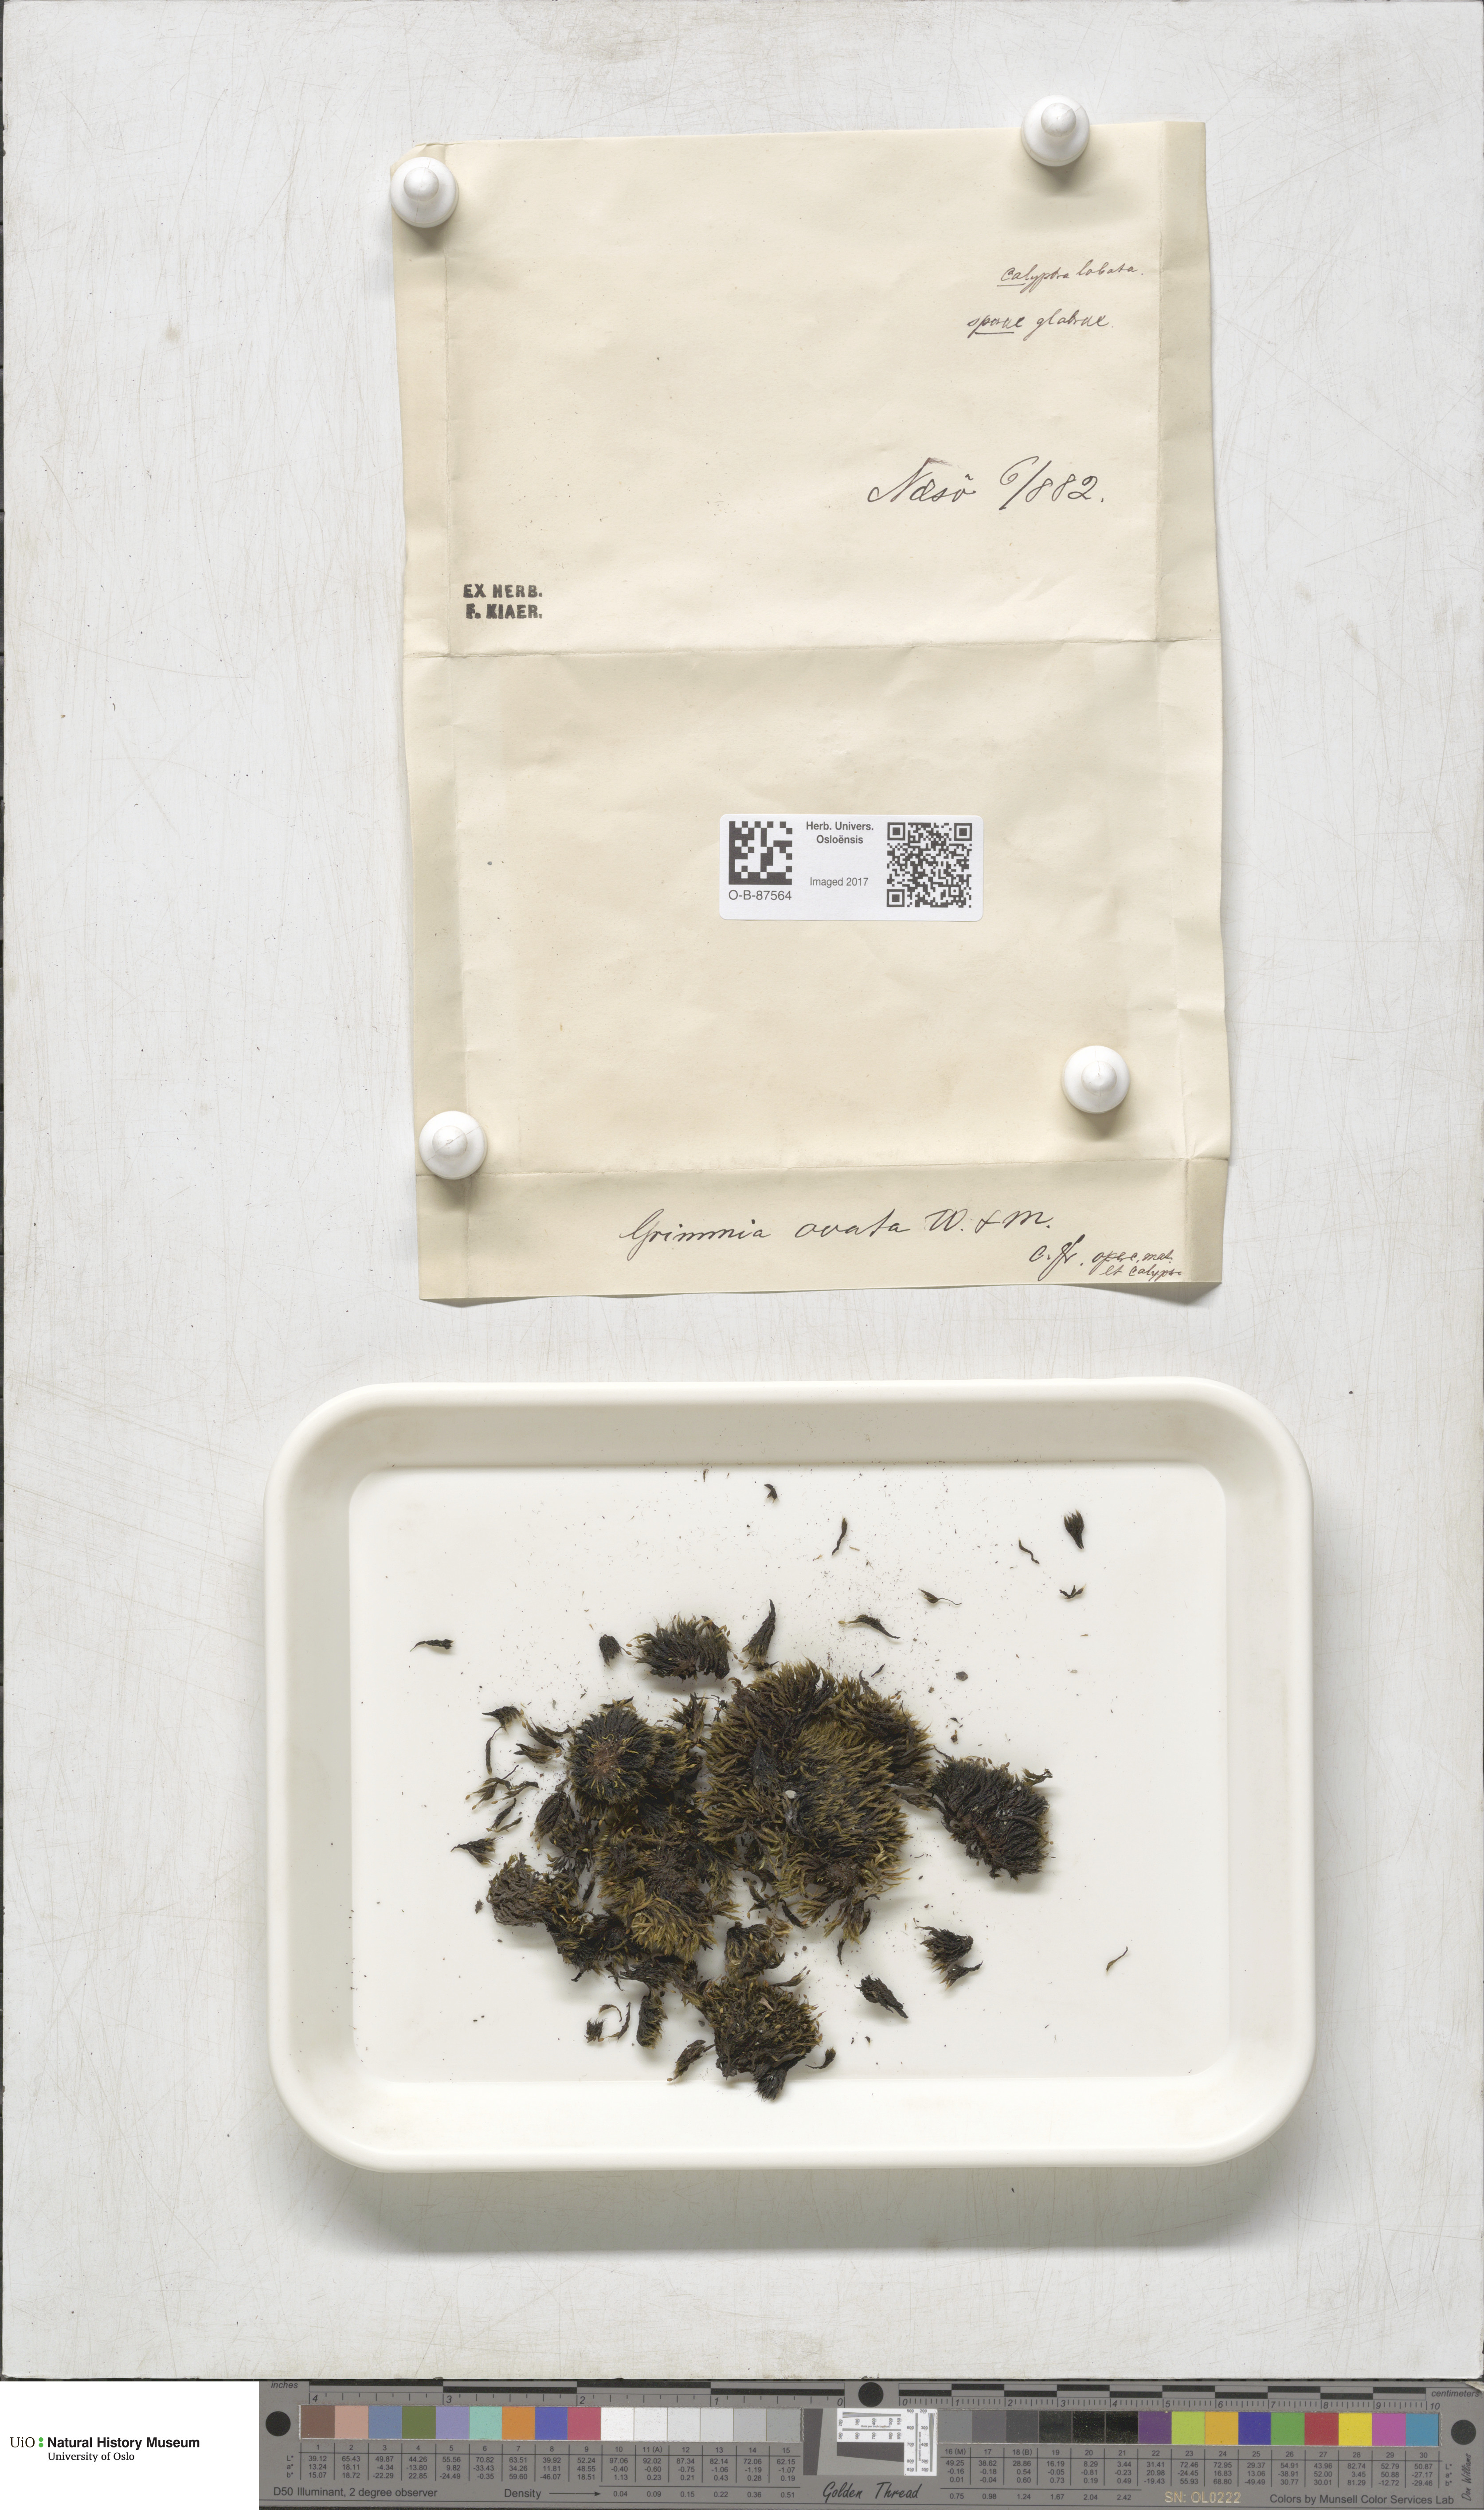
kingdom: Plantae
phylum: Bryophyta
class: Bryopsida
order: Grimmiales
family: Grimmiaceae
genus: Grimmia
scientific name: Grimmia ovalis
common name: Oval grimmia
